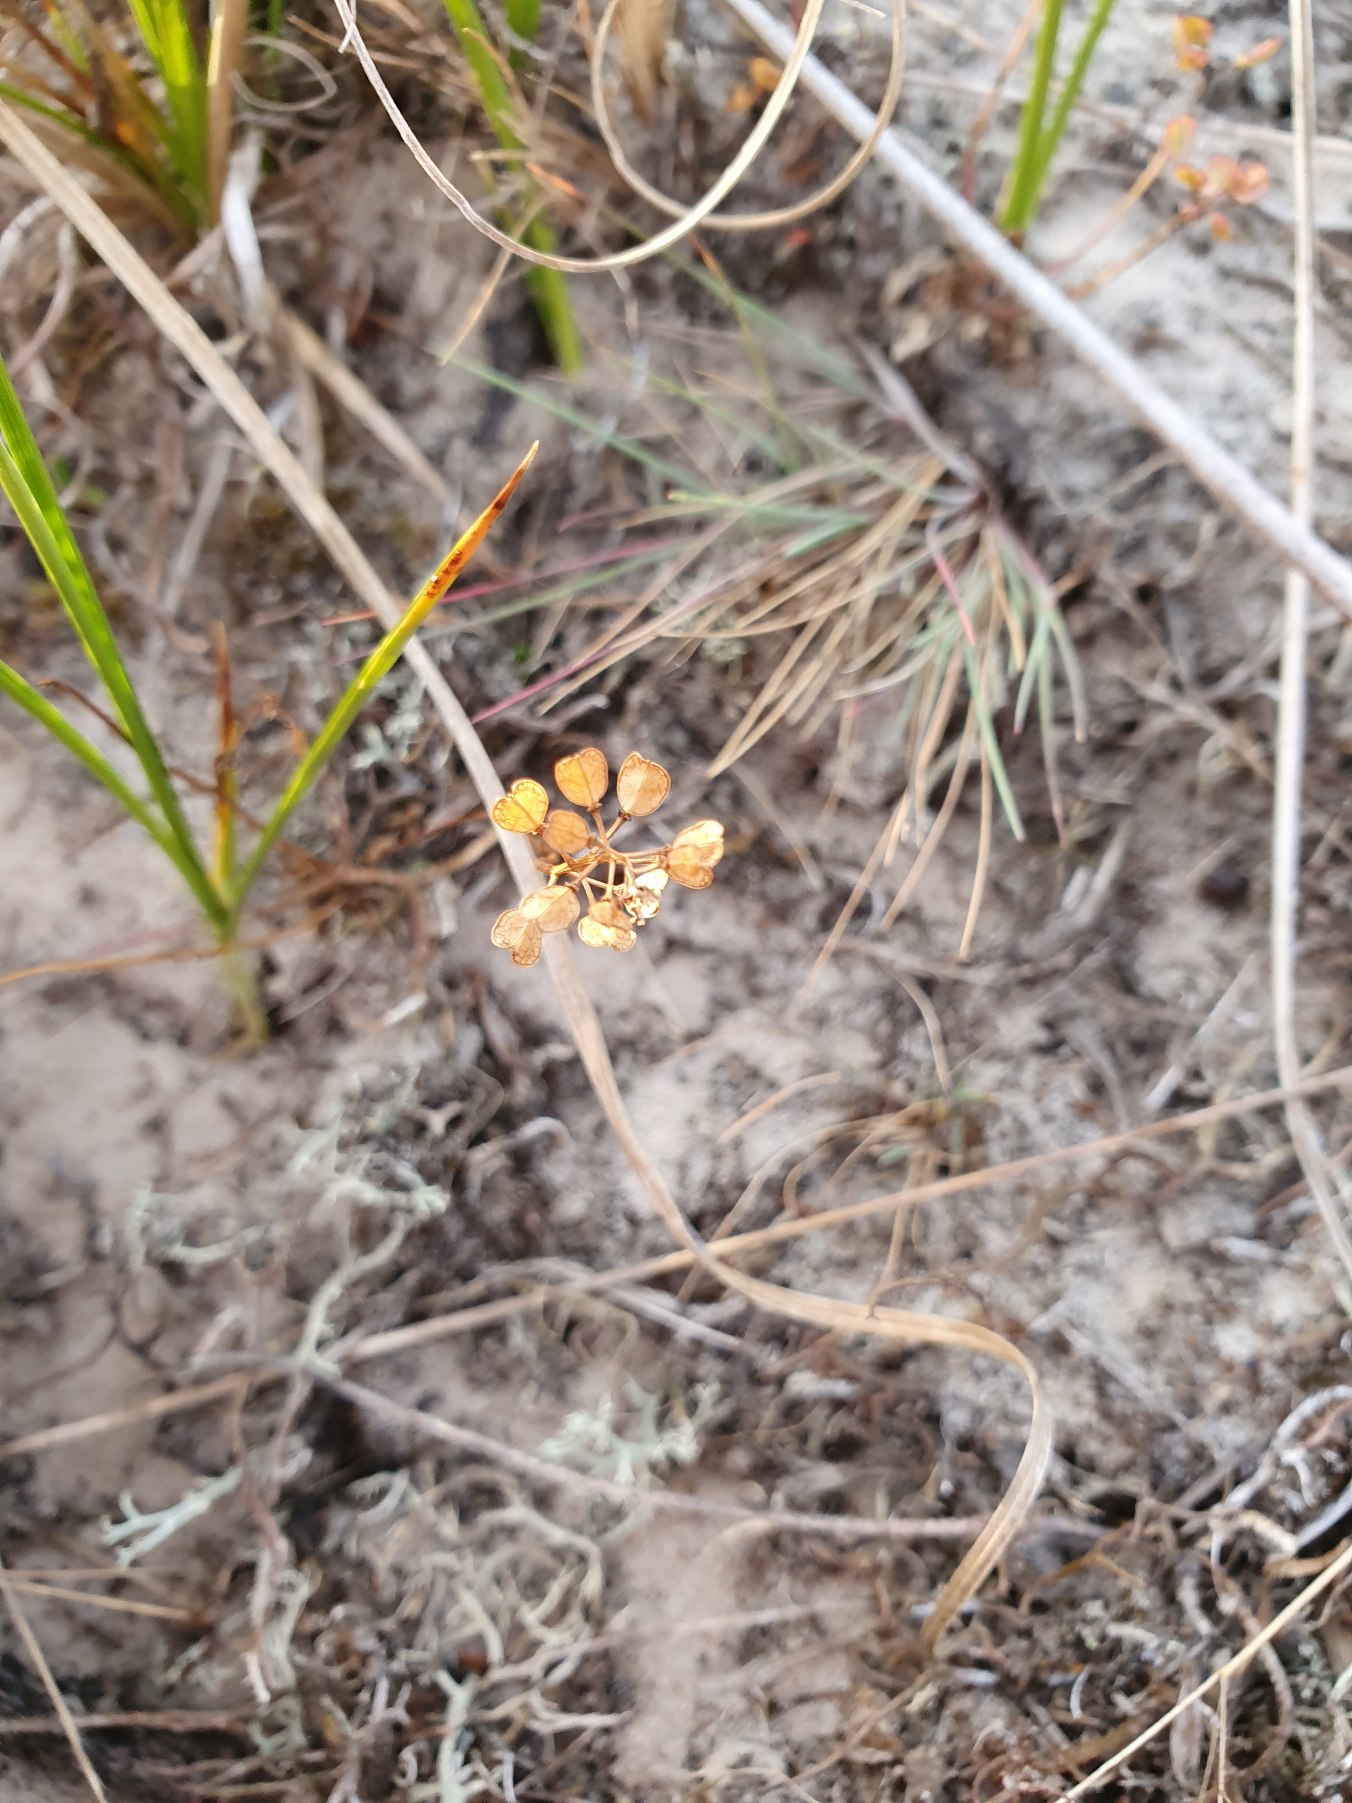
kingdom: Plantae
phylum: Tracheophyta
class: Magnoliopsida
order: Brassicales
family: Brassicaceae
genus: Teesdalia
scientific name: Teesdalia nudicaulis
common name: Flipkrave
